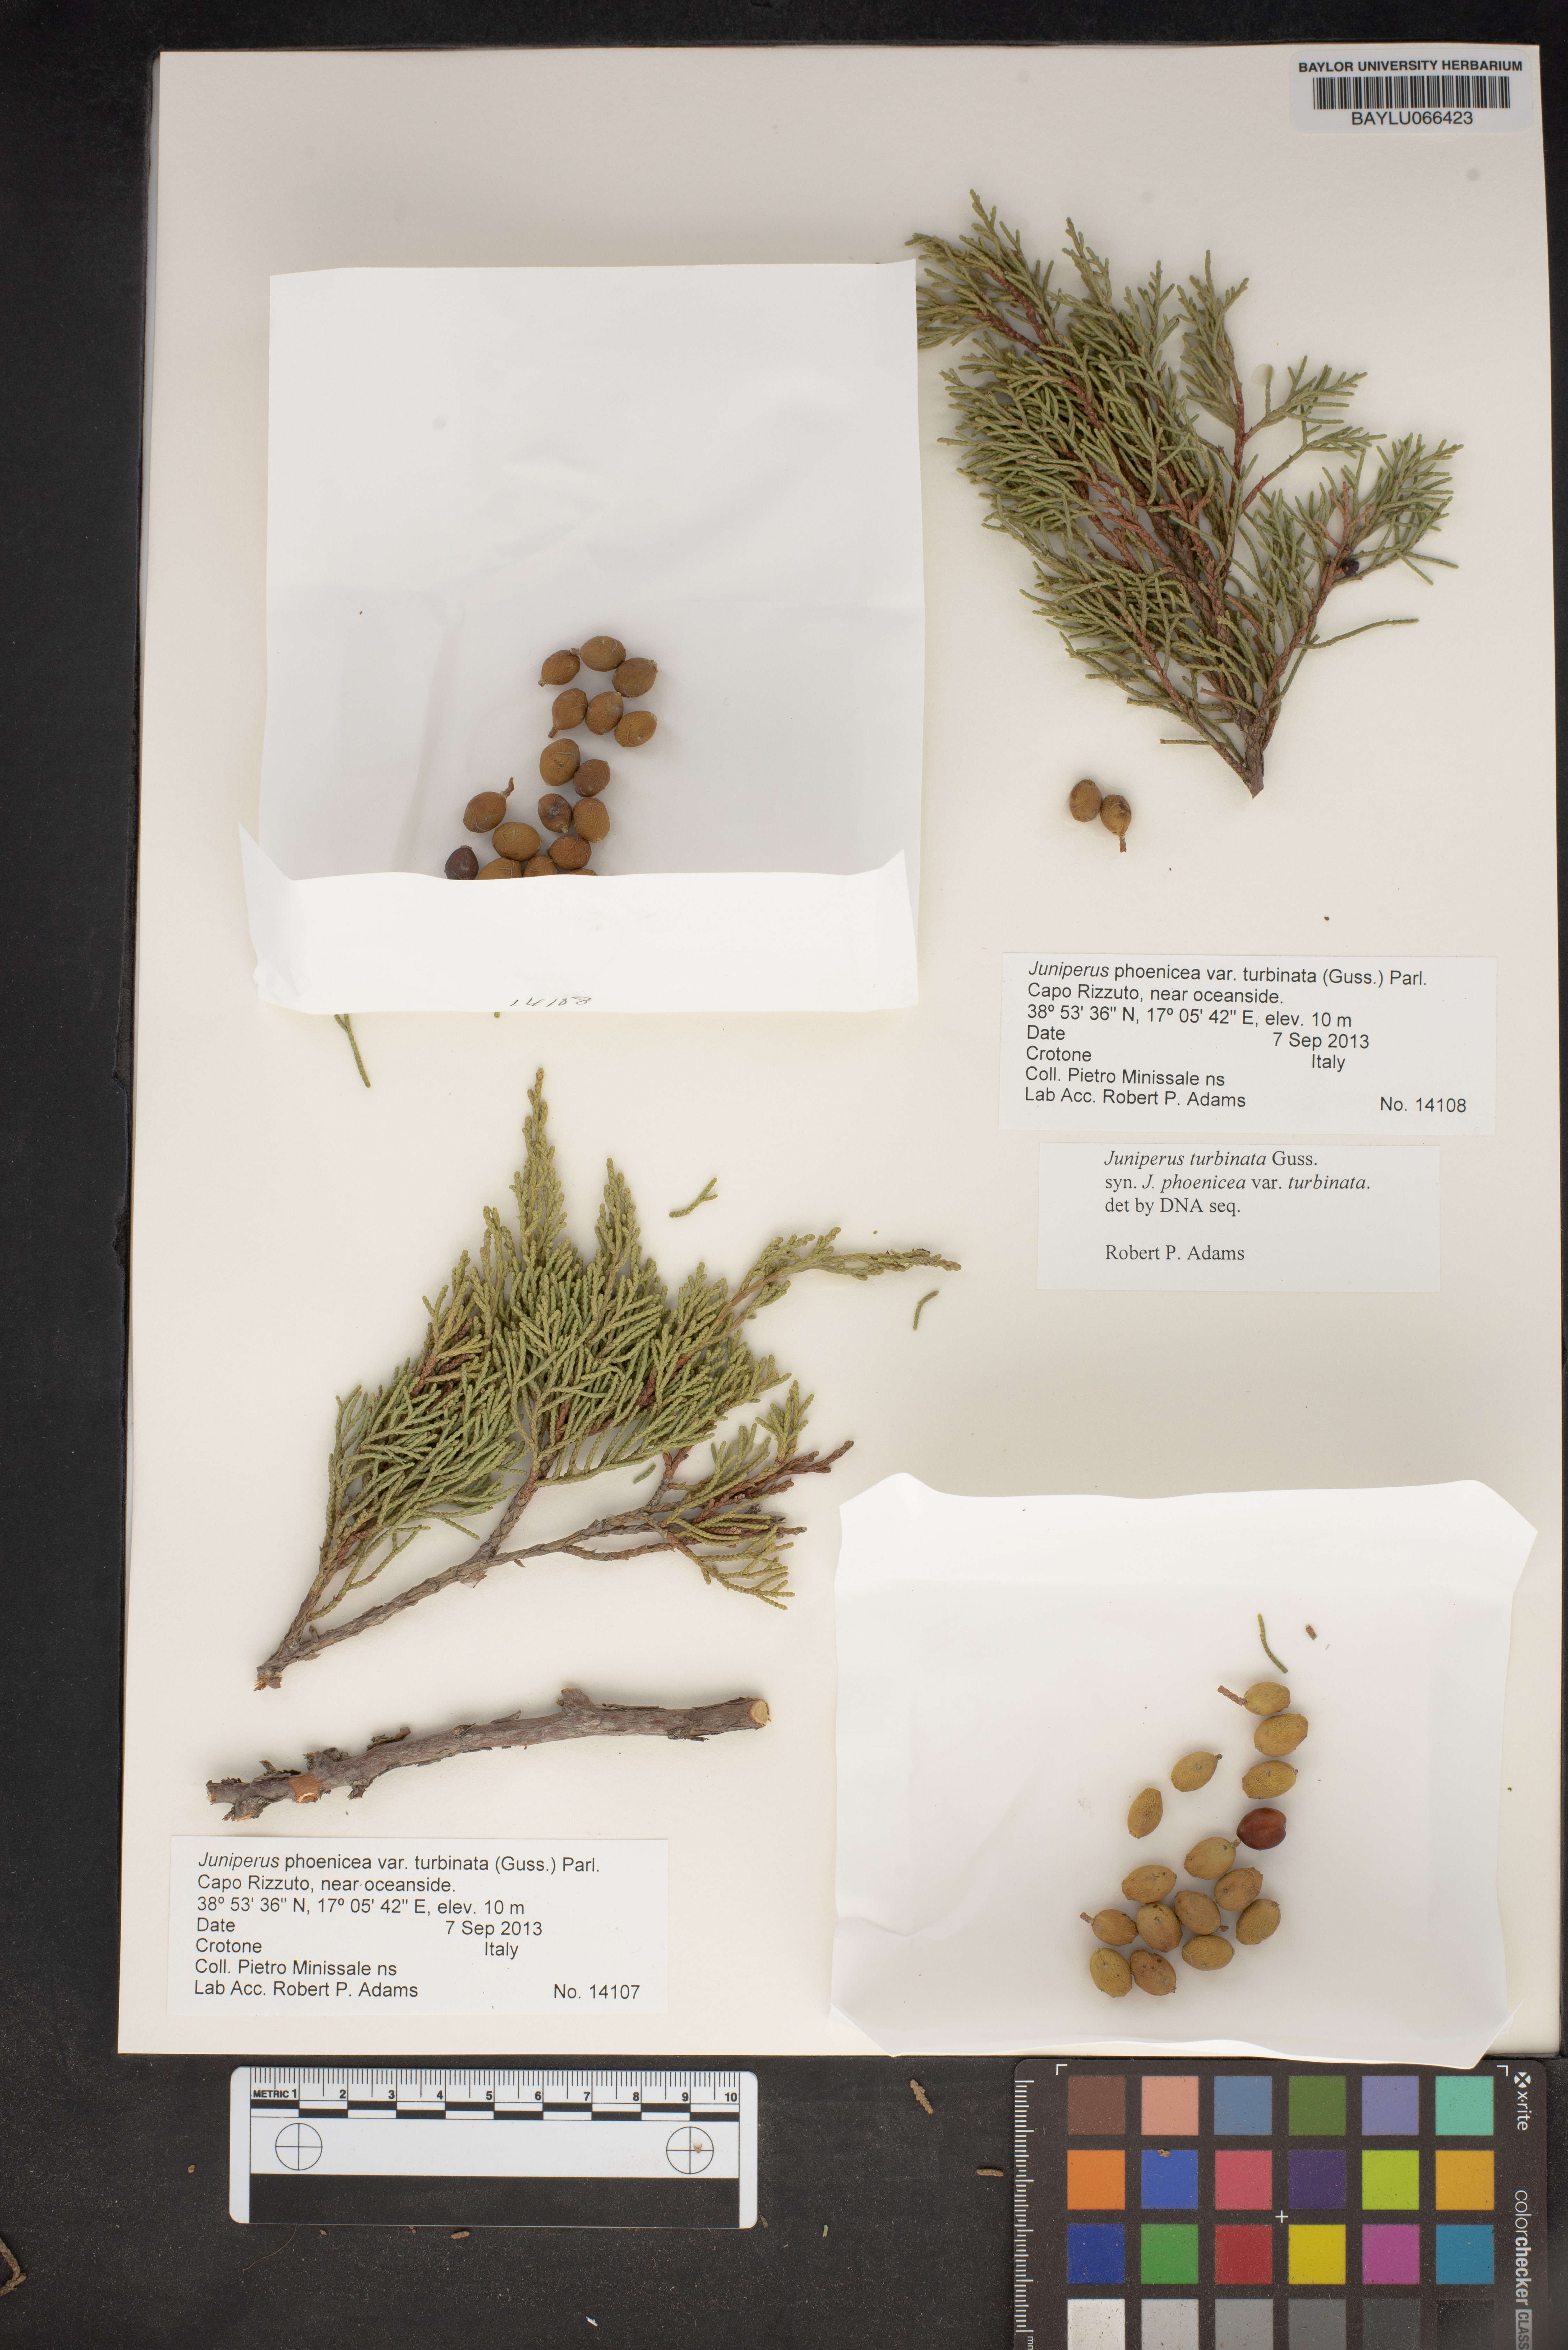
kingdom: Plantae
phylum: Tracheophyta
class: Pinopsida
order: Pinales
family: Cupressaceae
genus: Juniperus
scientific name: Juniperus phoenicea
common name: Phoenician juniper
